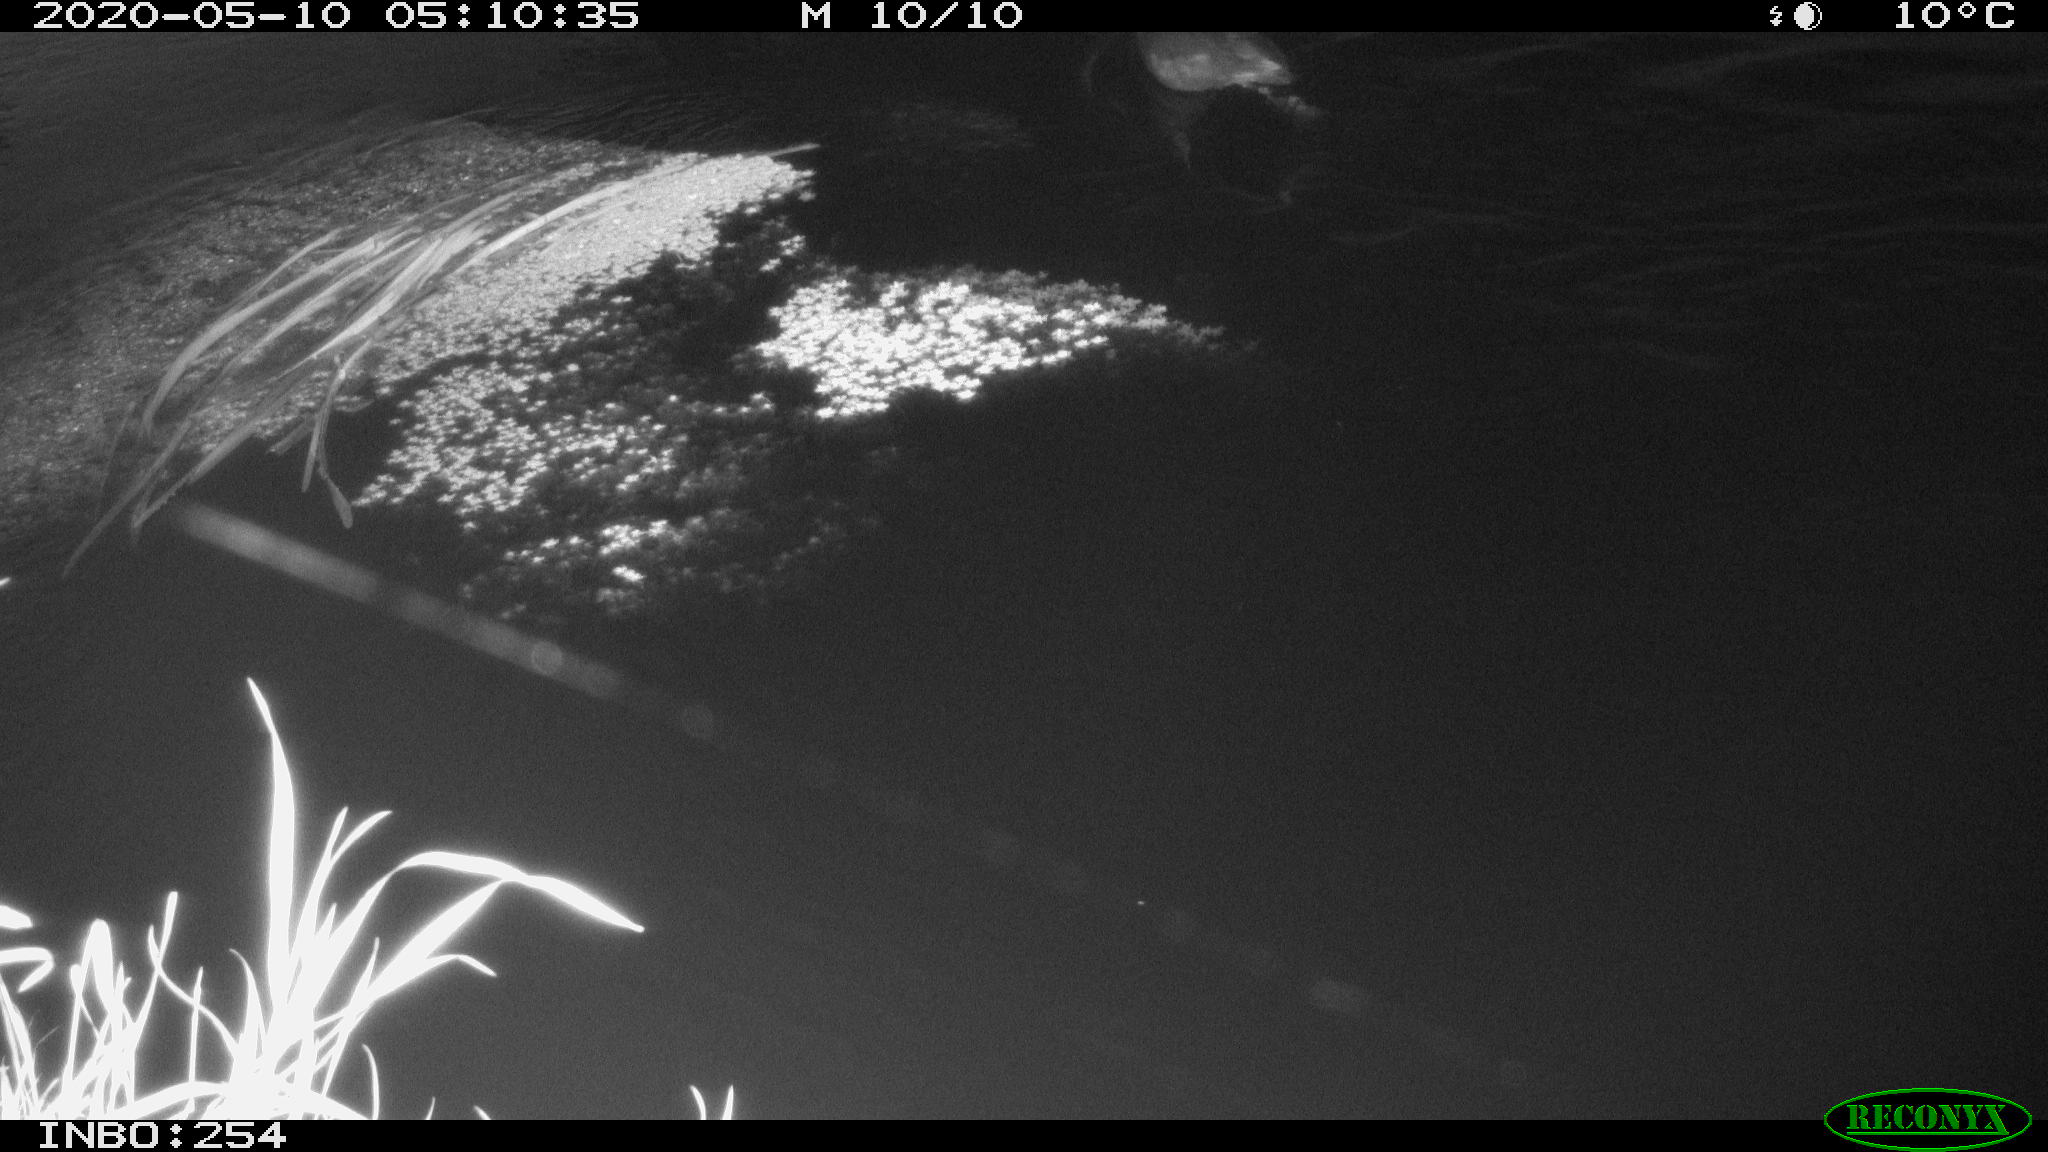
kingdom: Animalia
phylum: Chordata
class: Aves
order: Gruiformes
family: Rallidae
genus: Fulica
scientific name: Fulica atra
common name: Eurasian coot
